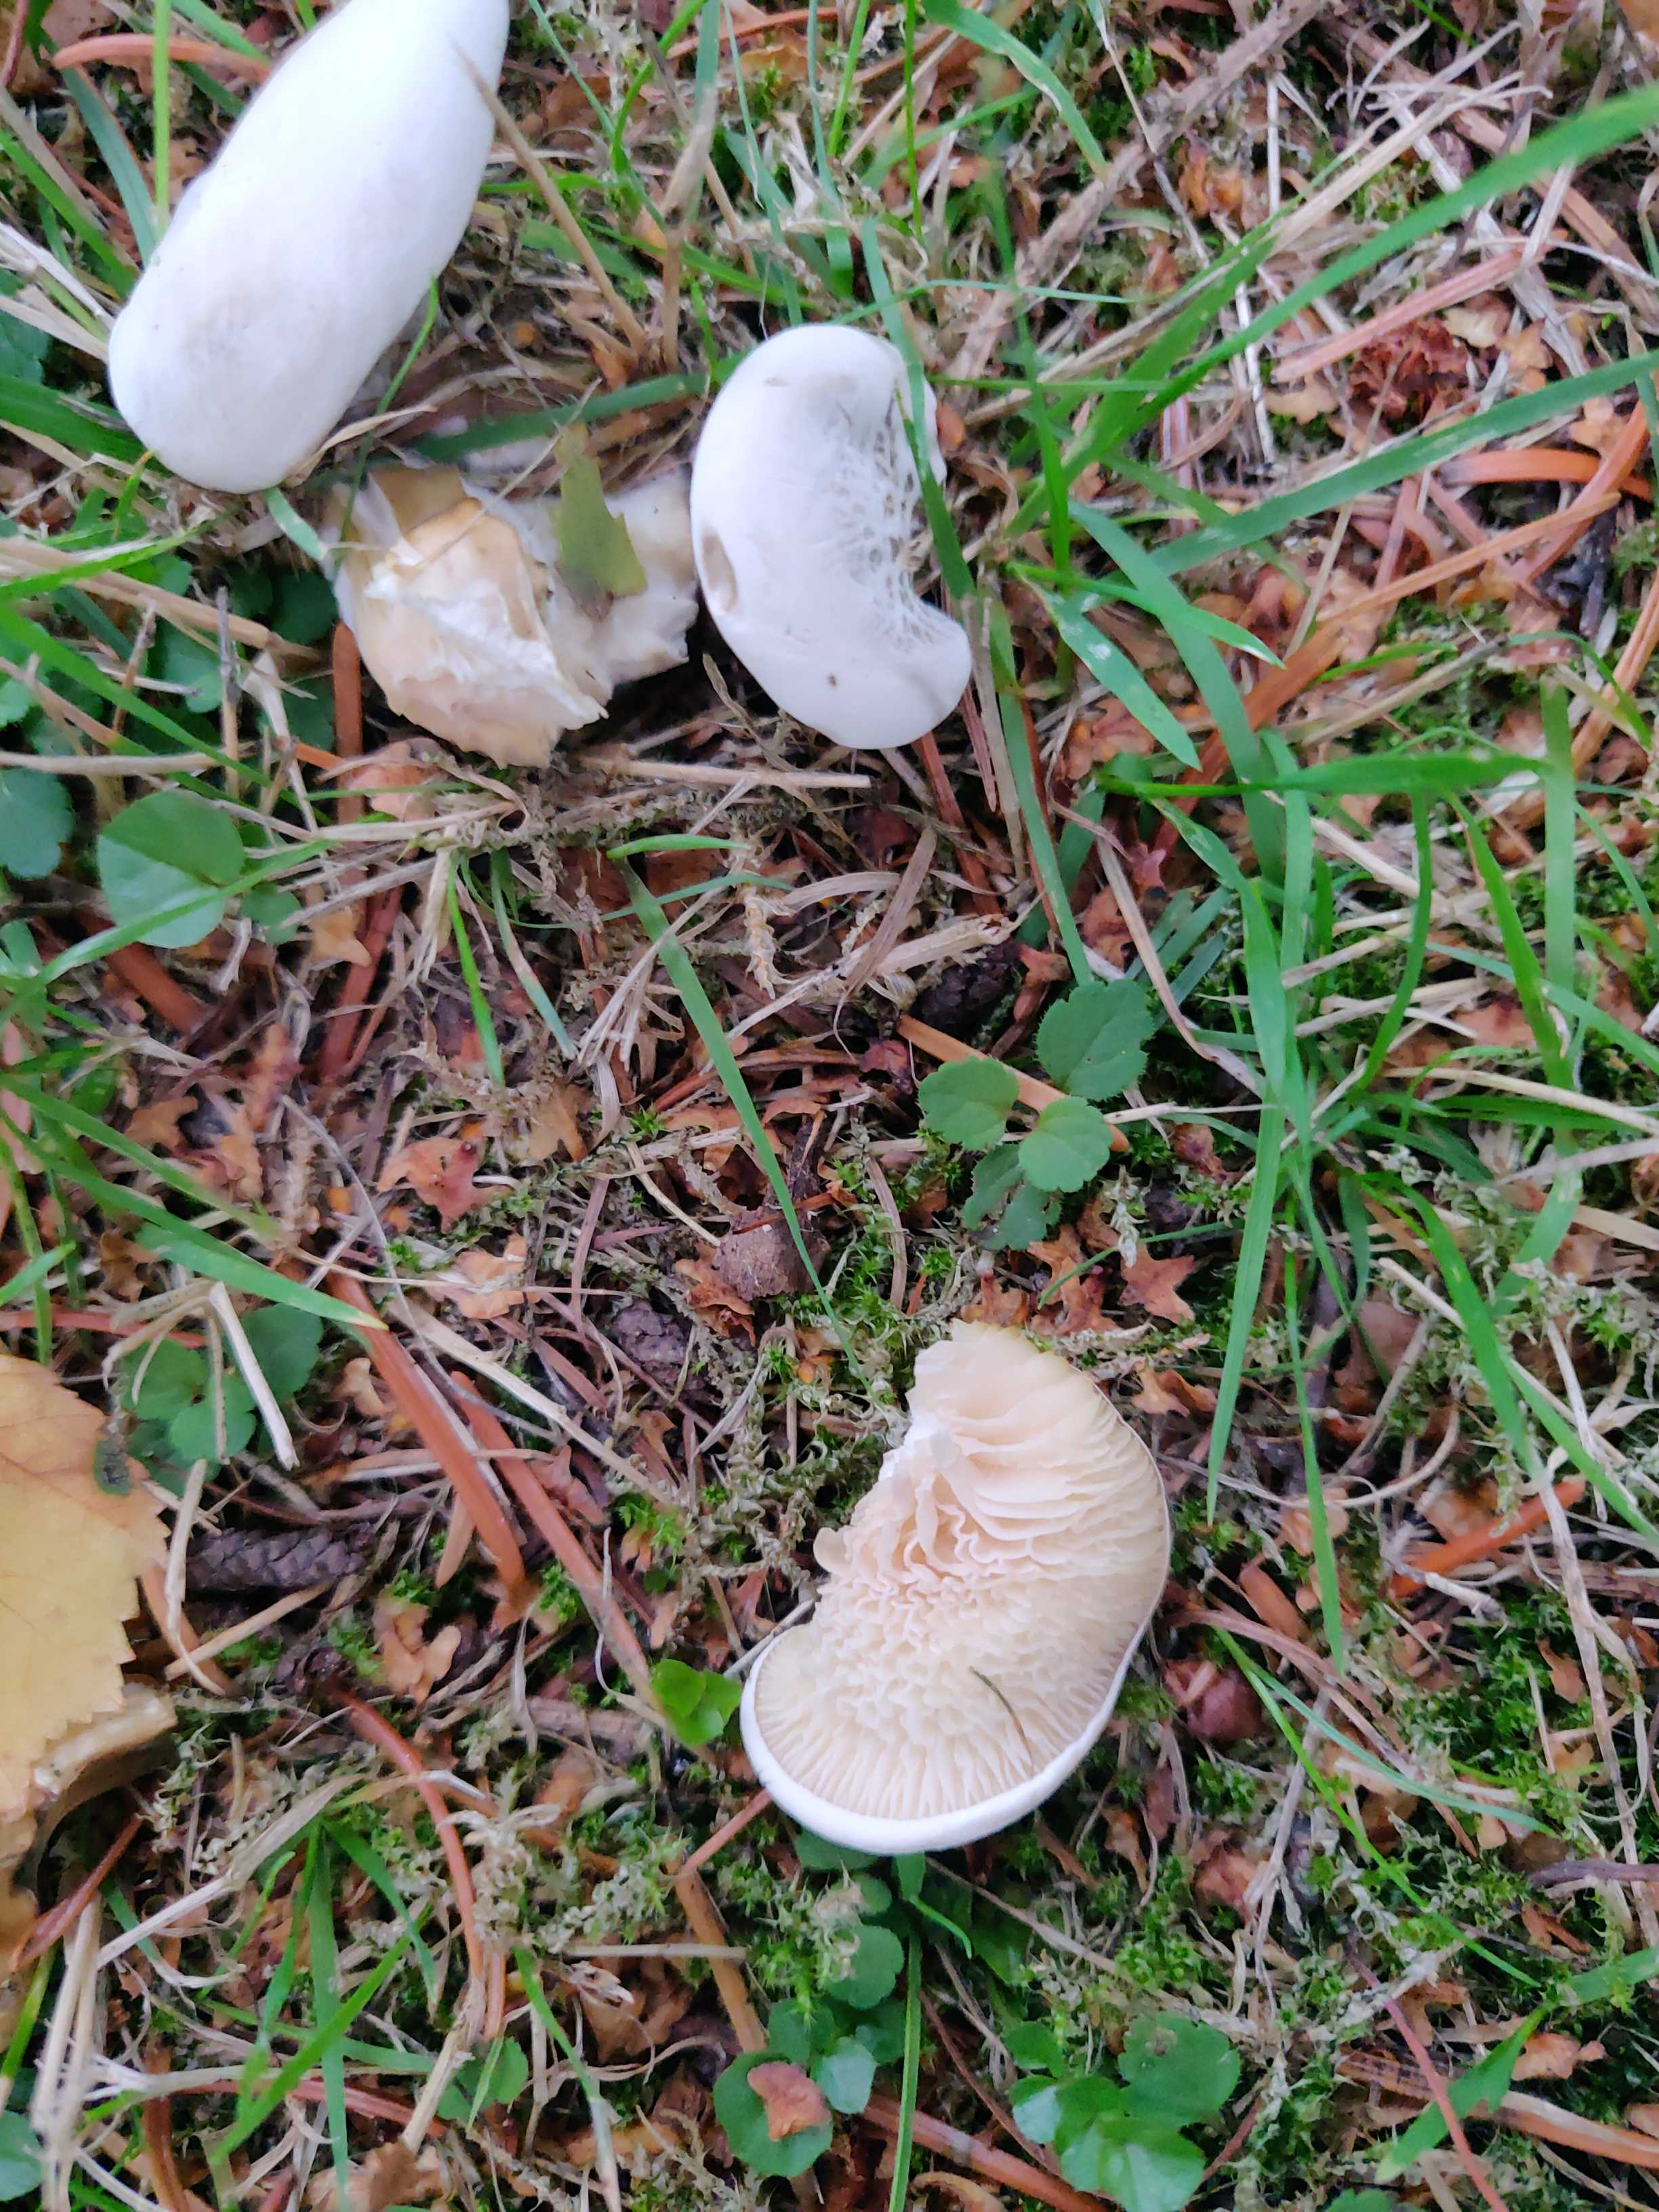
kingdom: Fungi
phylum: Basidiomycota
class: Agaricomycetes
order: Agaricales
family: Entolomataceae
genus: Clitopilus
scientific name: Clitopilus prunulus
